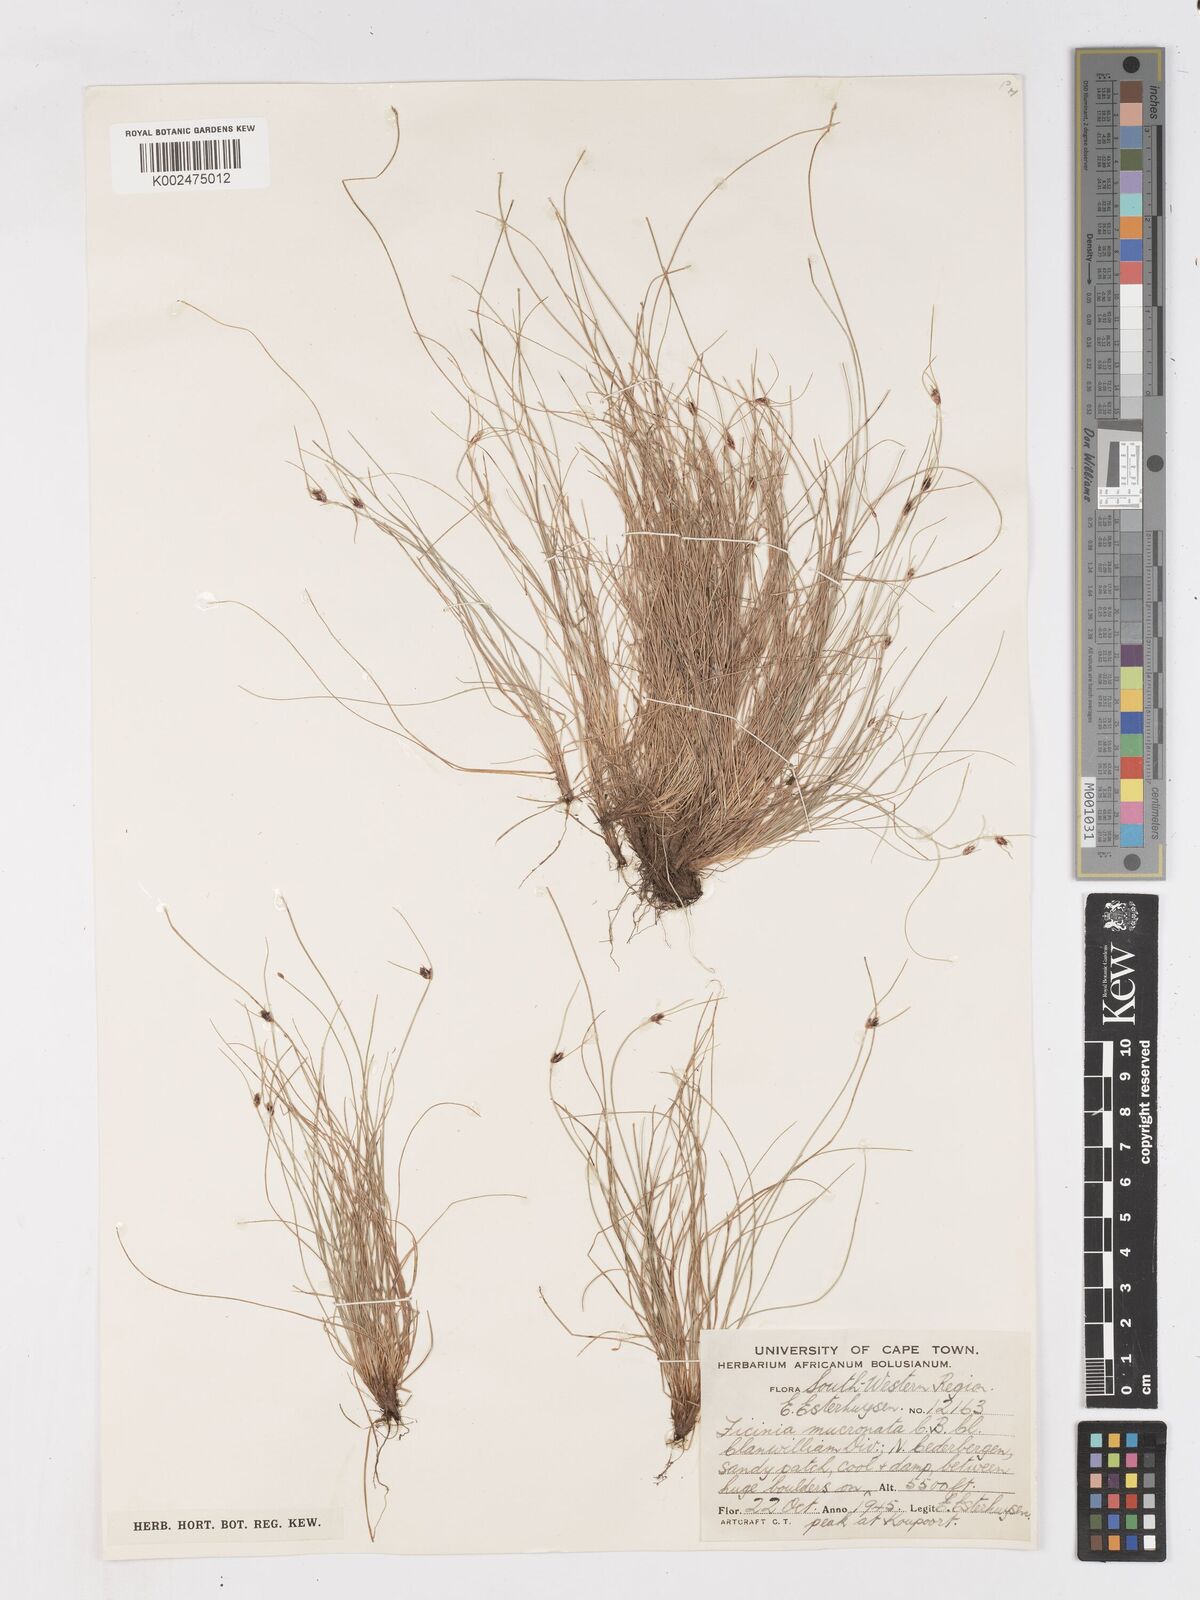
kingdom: Plantae
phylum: Tracheophyta
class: Liliopsida
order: Poales
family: Cyperaceae
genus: Ficinia
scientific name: Ficinia mucronata
